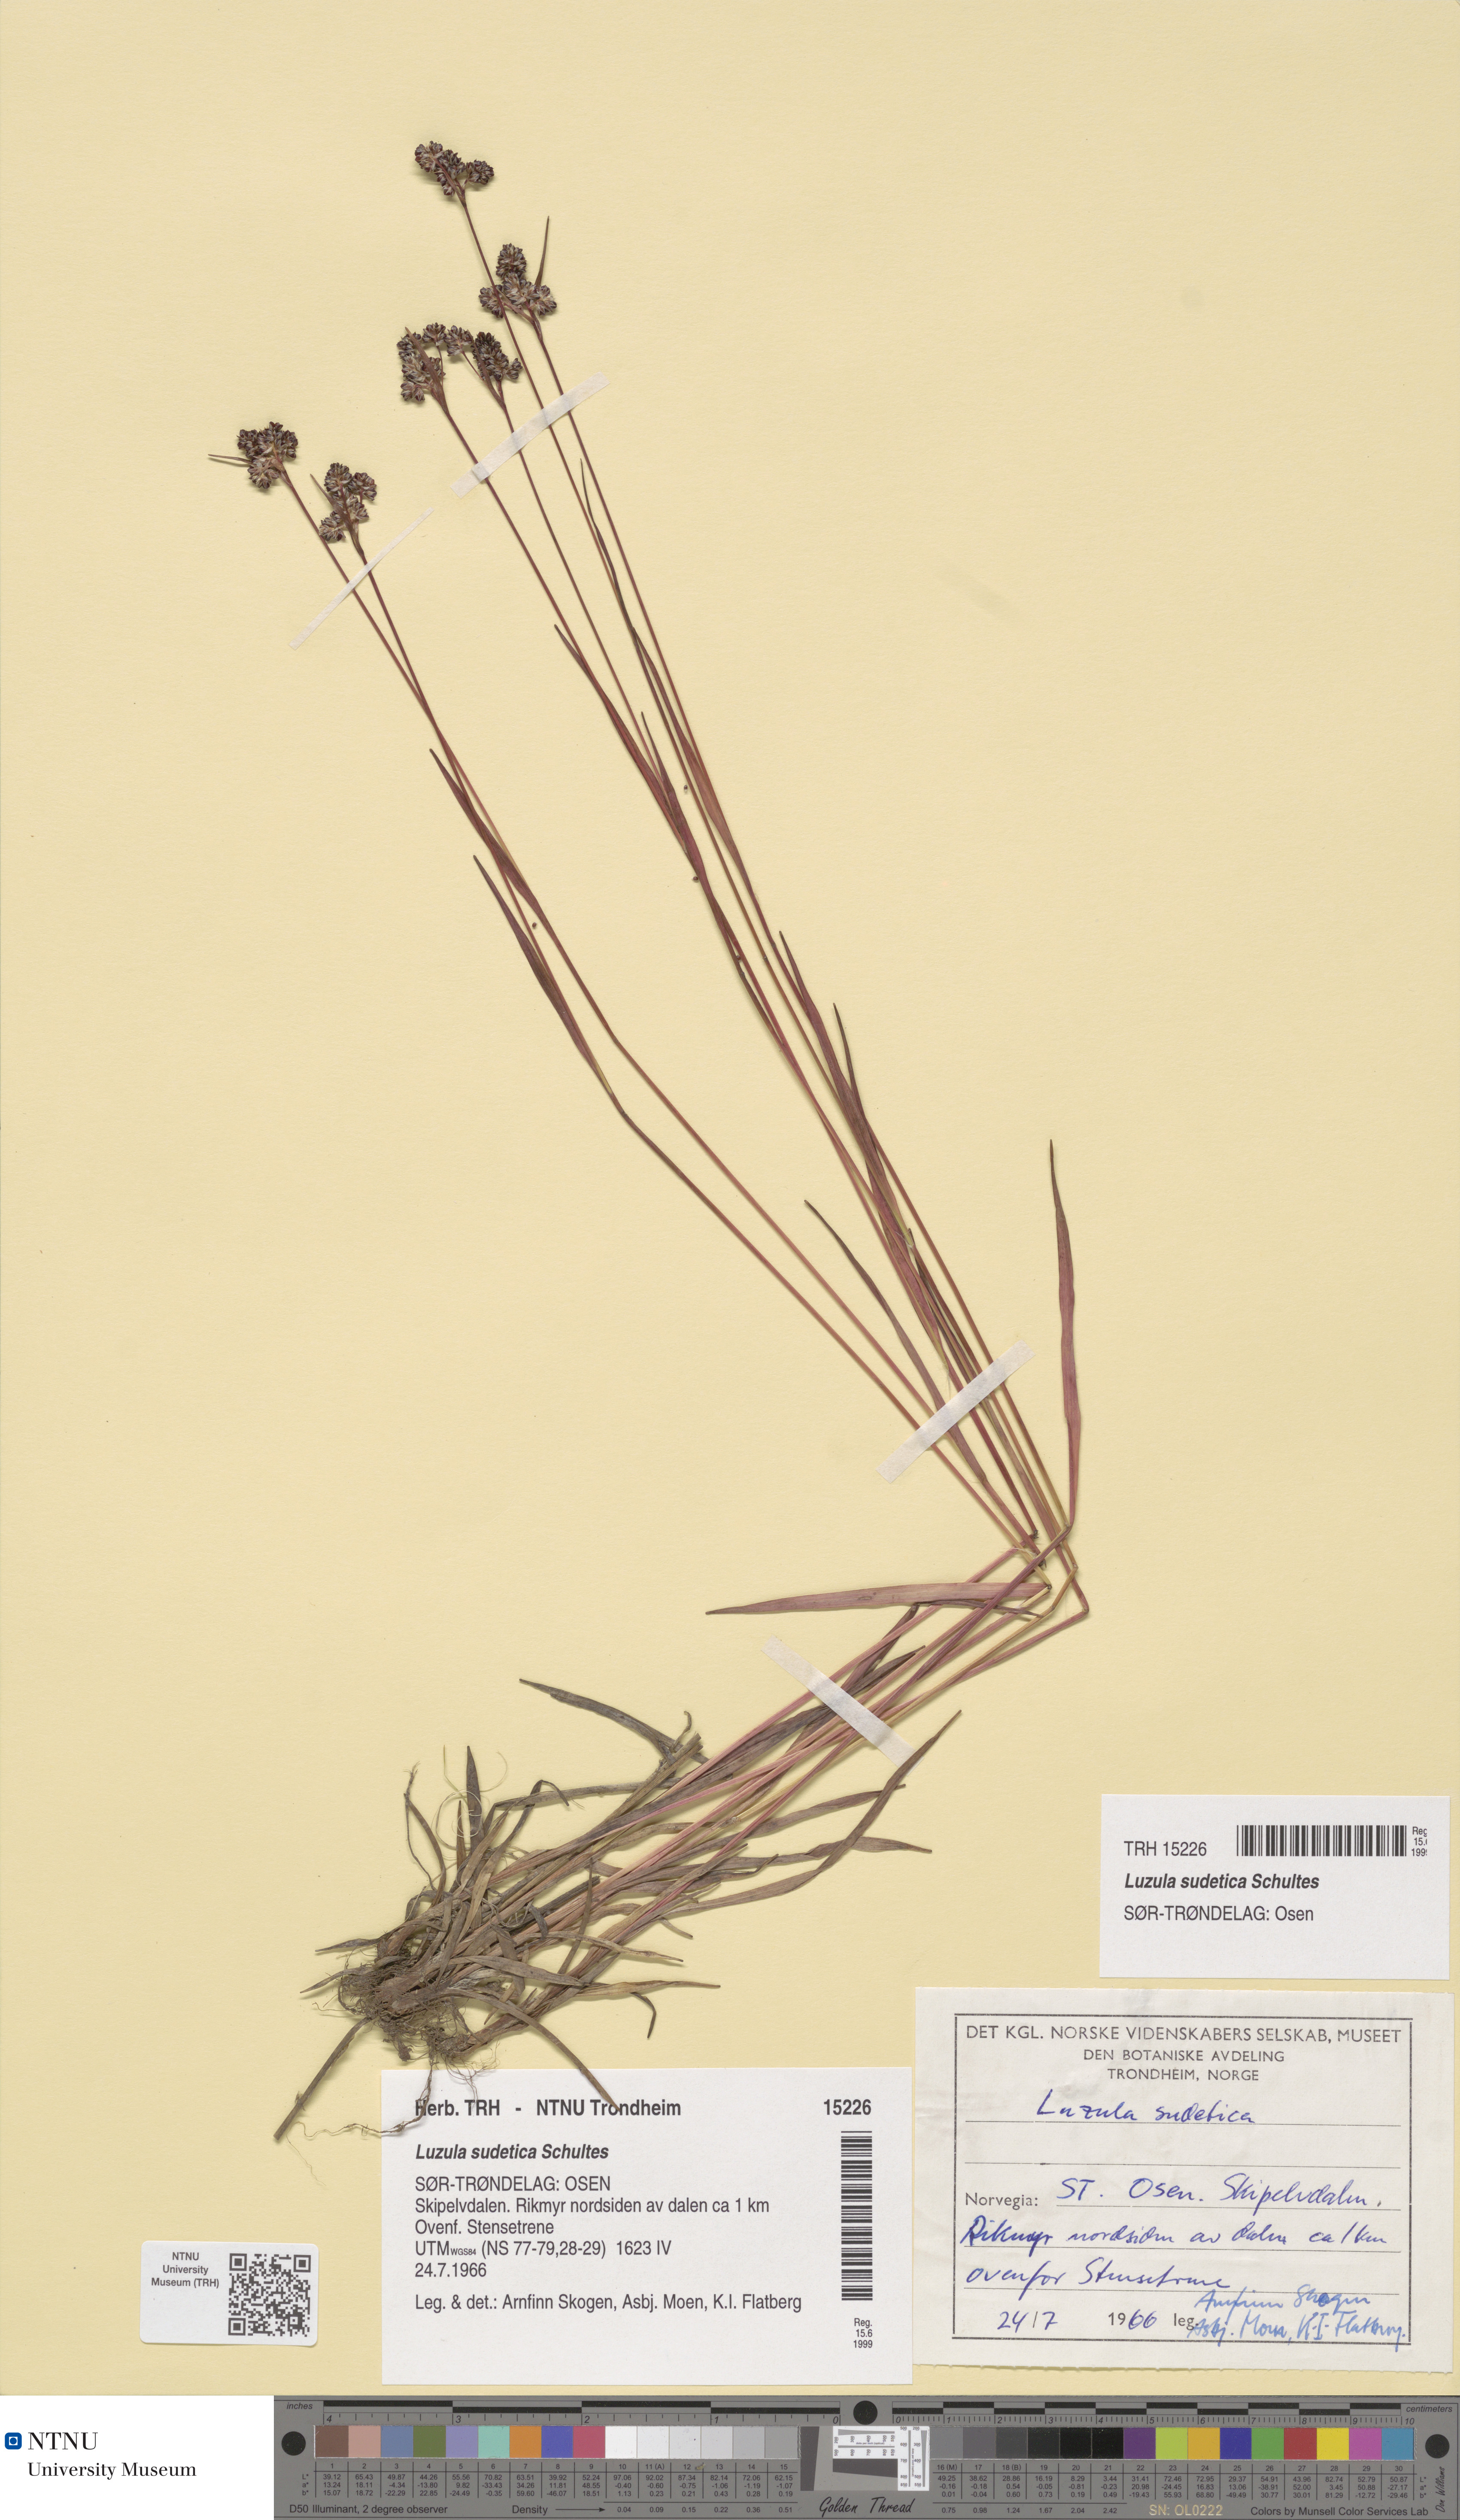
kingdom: Plantae
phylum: Tracheophyta
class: Liliopsida
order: Poales
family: Juncaceae
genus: Luzula
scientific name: Luzula sudetica
